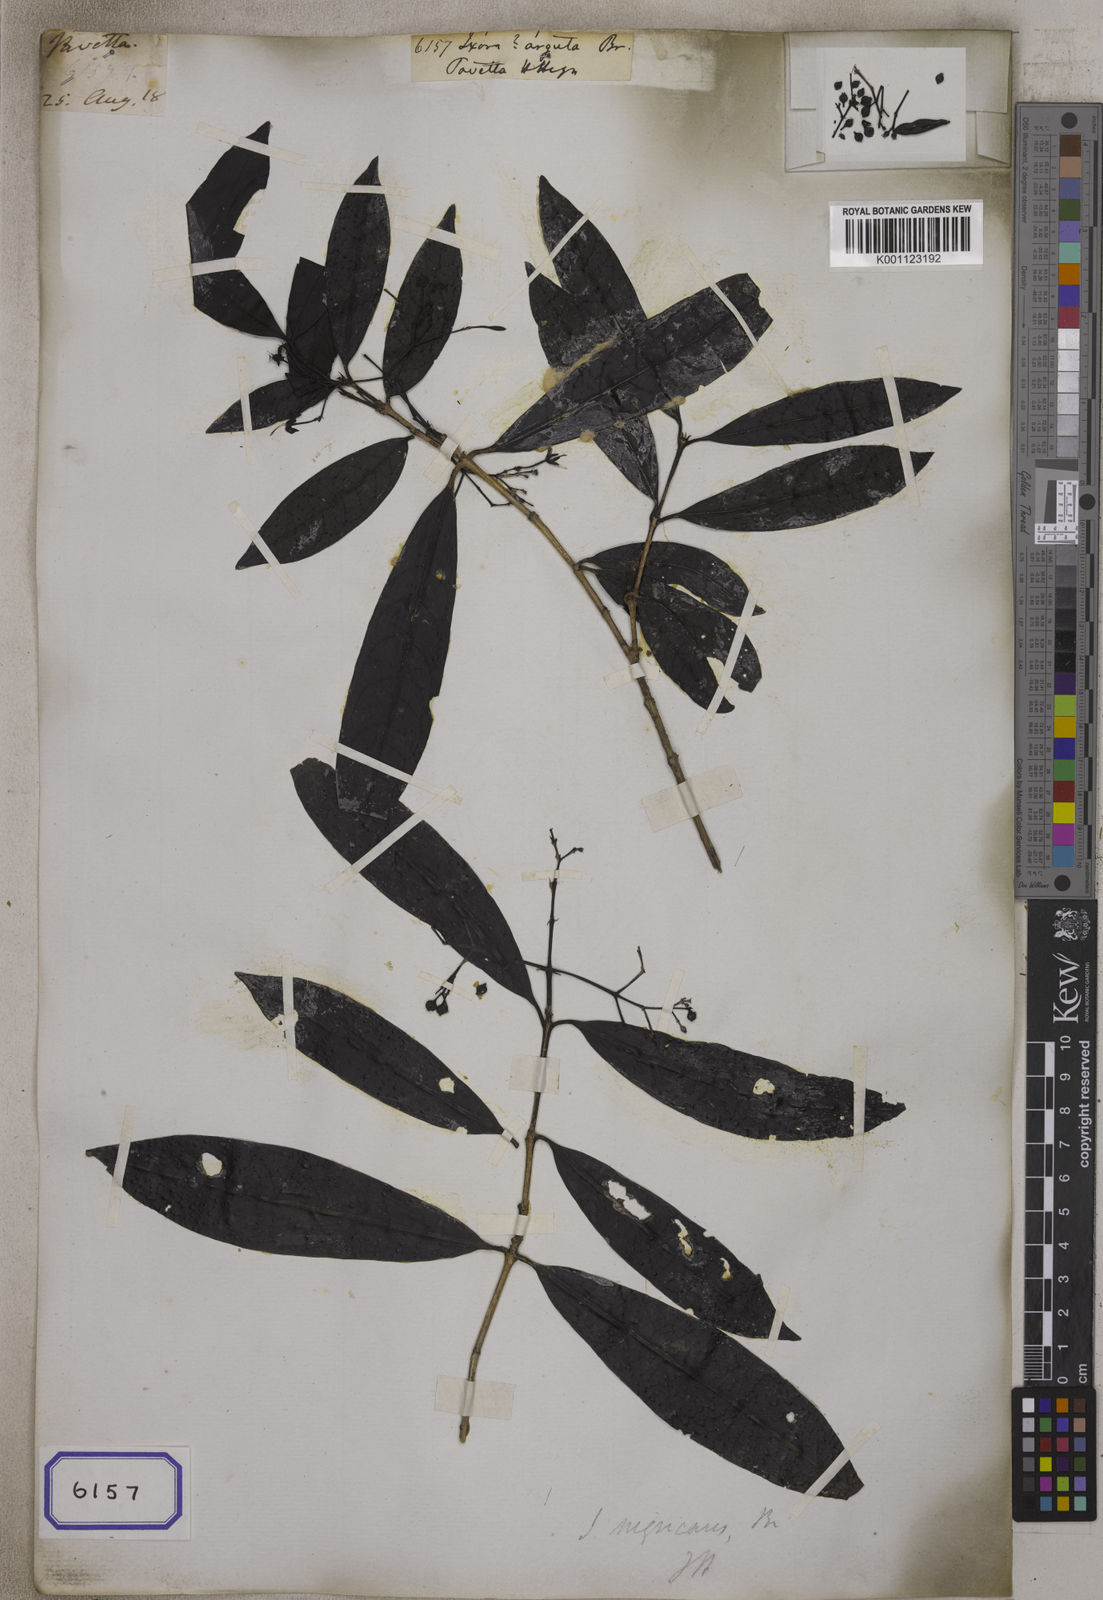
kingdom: Plantae
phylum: Tracheophyta
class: Magnoliopsida
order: Gentianales
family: Rubiaceae
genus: Ixora
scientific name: Ixora
